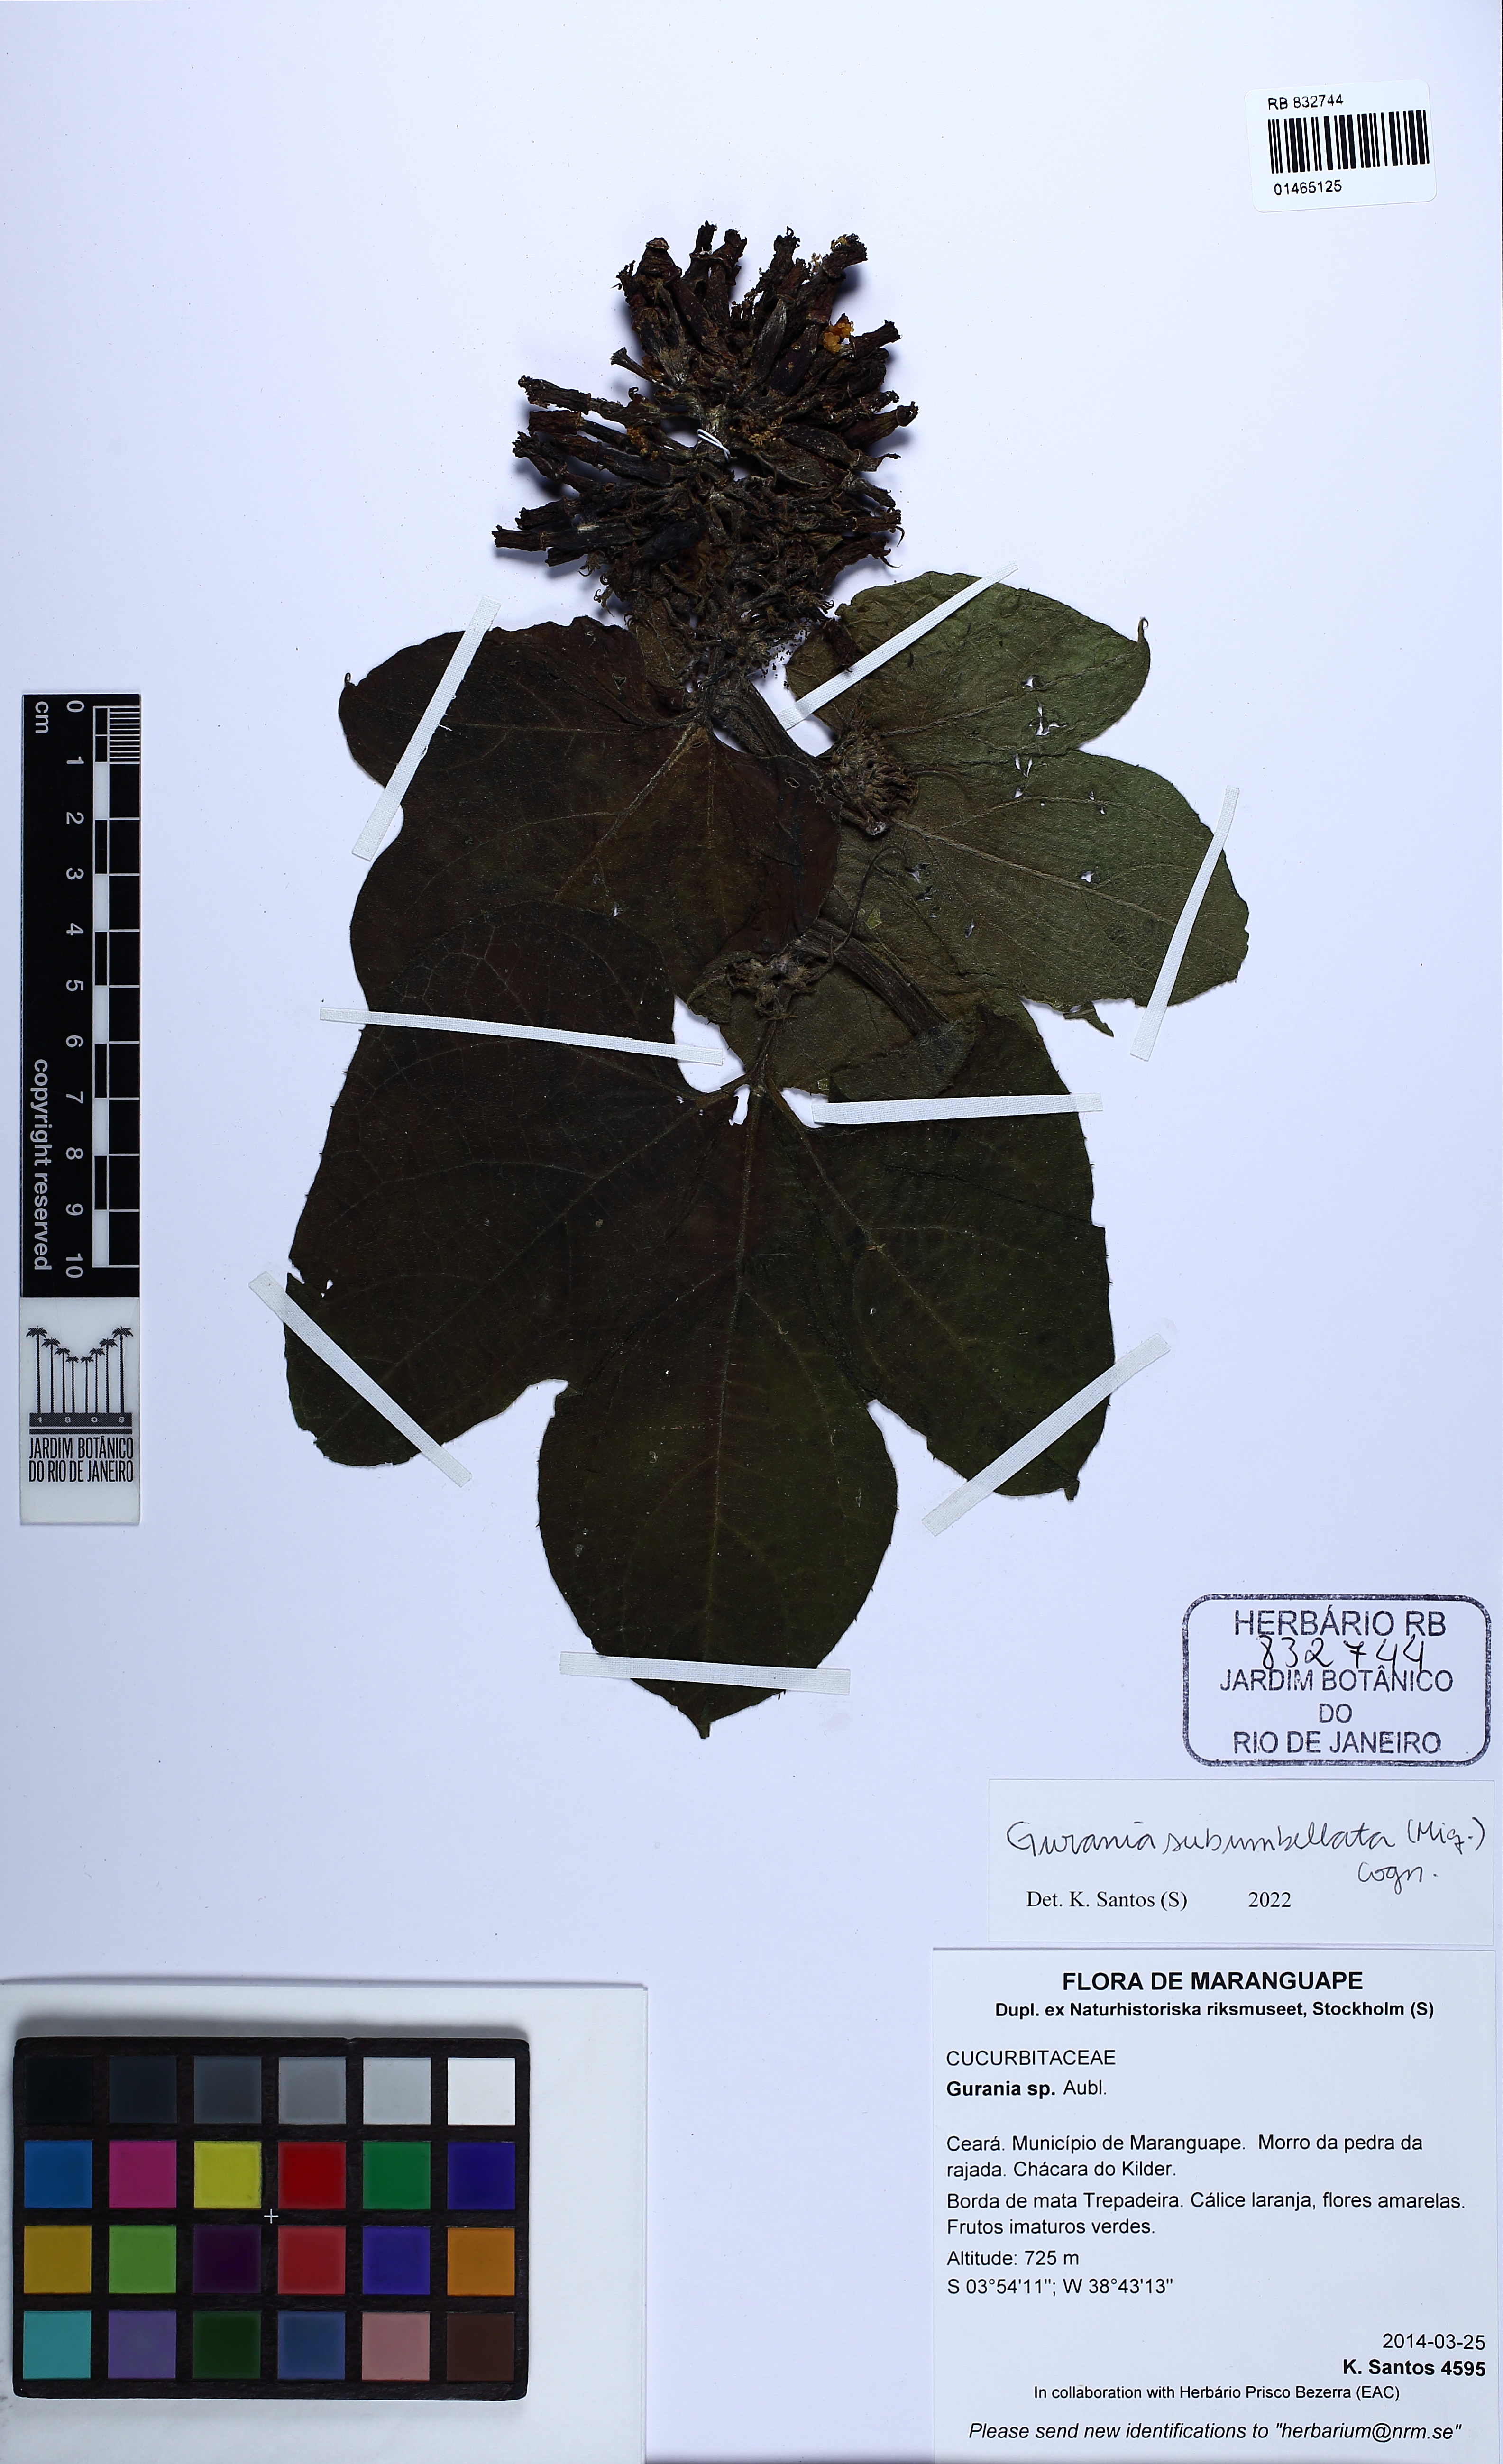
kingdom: Plantae
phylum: Tracheophyta
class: Magnoliopsida
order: Cucurbitales
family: Cucurbitaceae
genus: Gurania
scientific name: Gurania subumbellata
